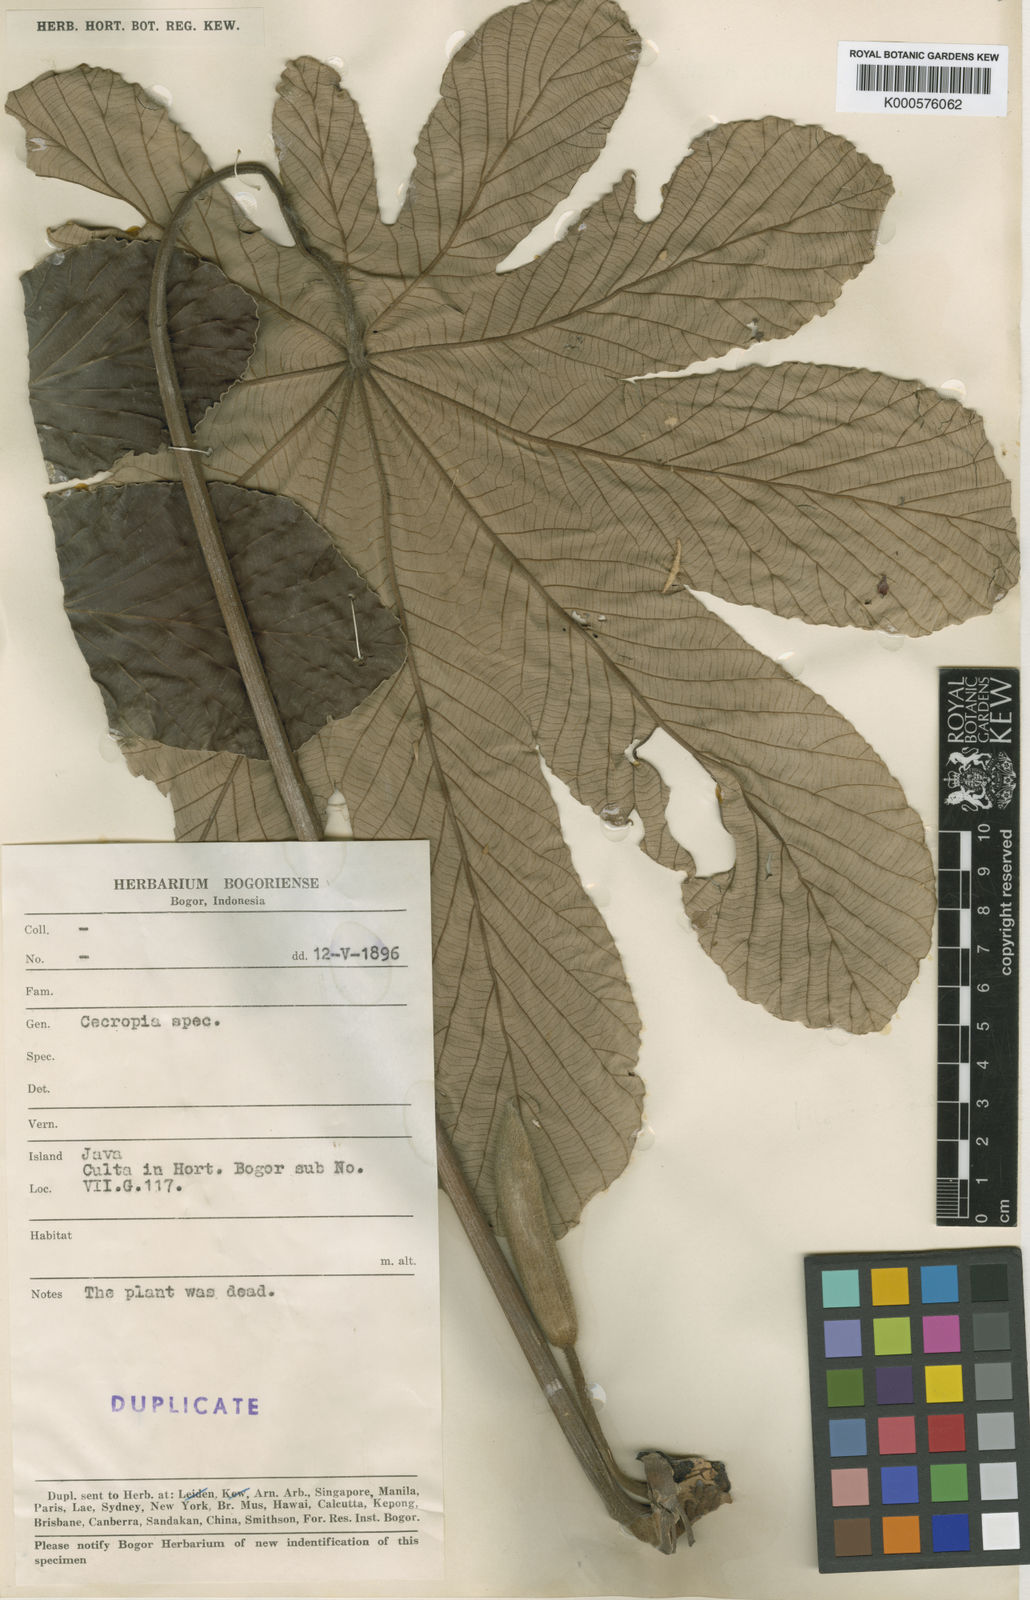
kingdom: Plantae
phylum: Tracheophyta
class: Magnoliopsida
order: Rosales
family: Urticaceae
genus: Cecropia
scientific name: Cecropia
